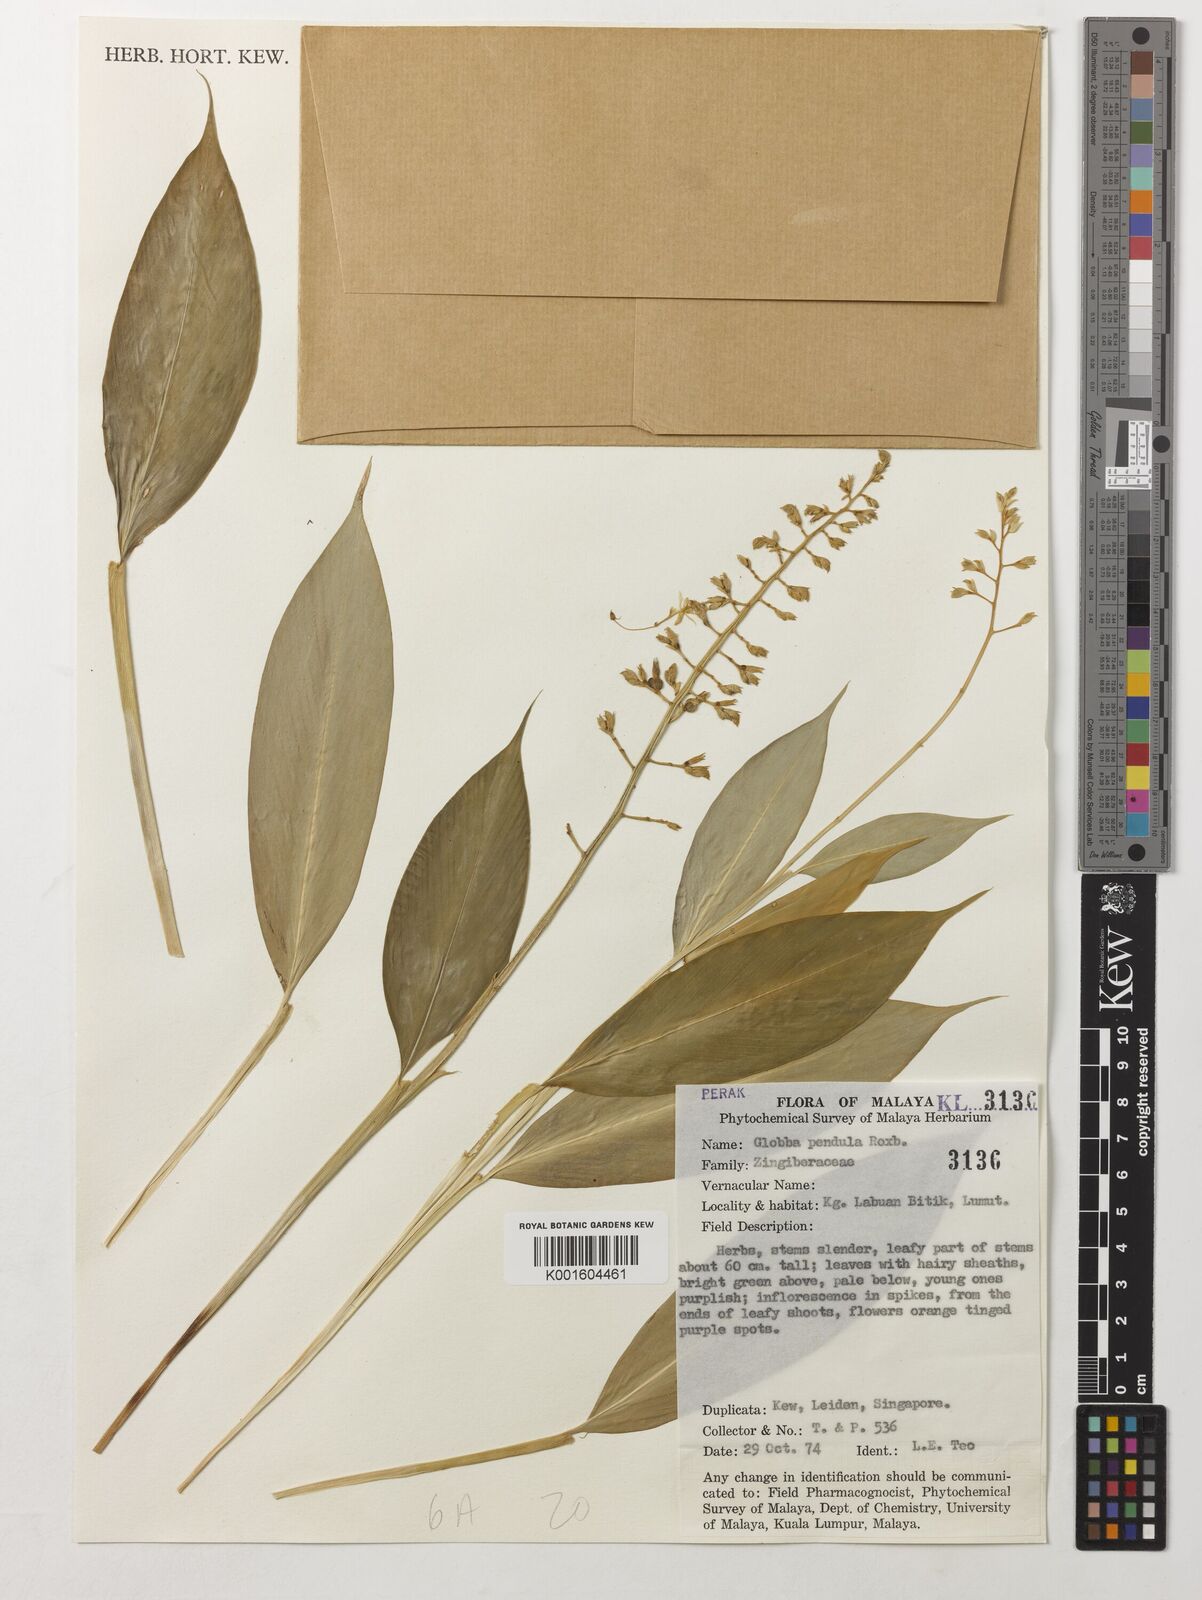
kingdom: Plantae
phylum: Tracheophyta
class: Liliopsida
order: Zingiberales
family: Zingiberaceae
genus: Globba
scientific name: Globba pendula
